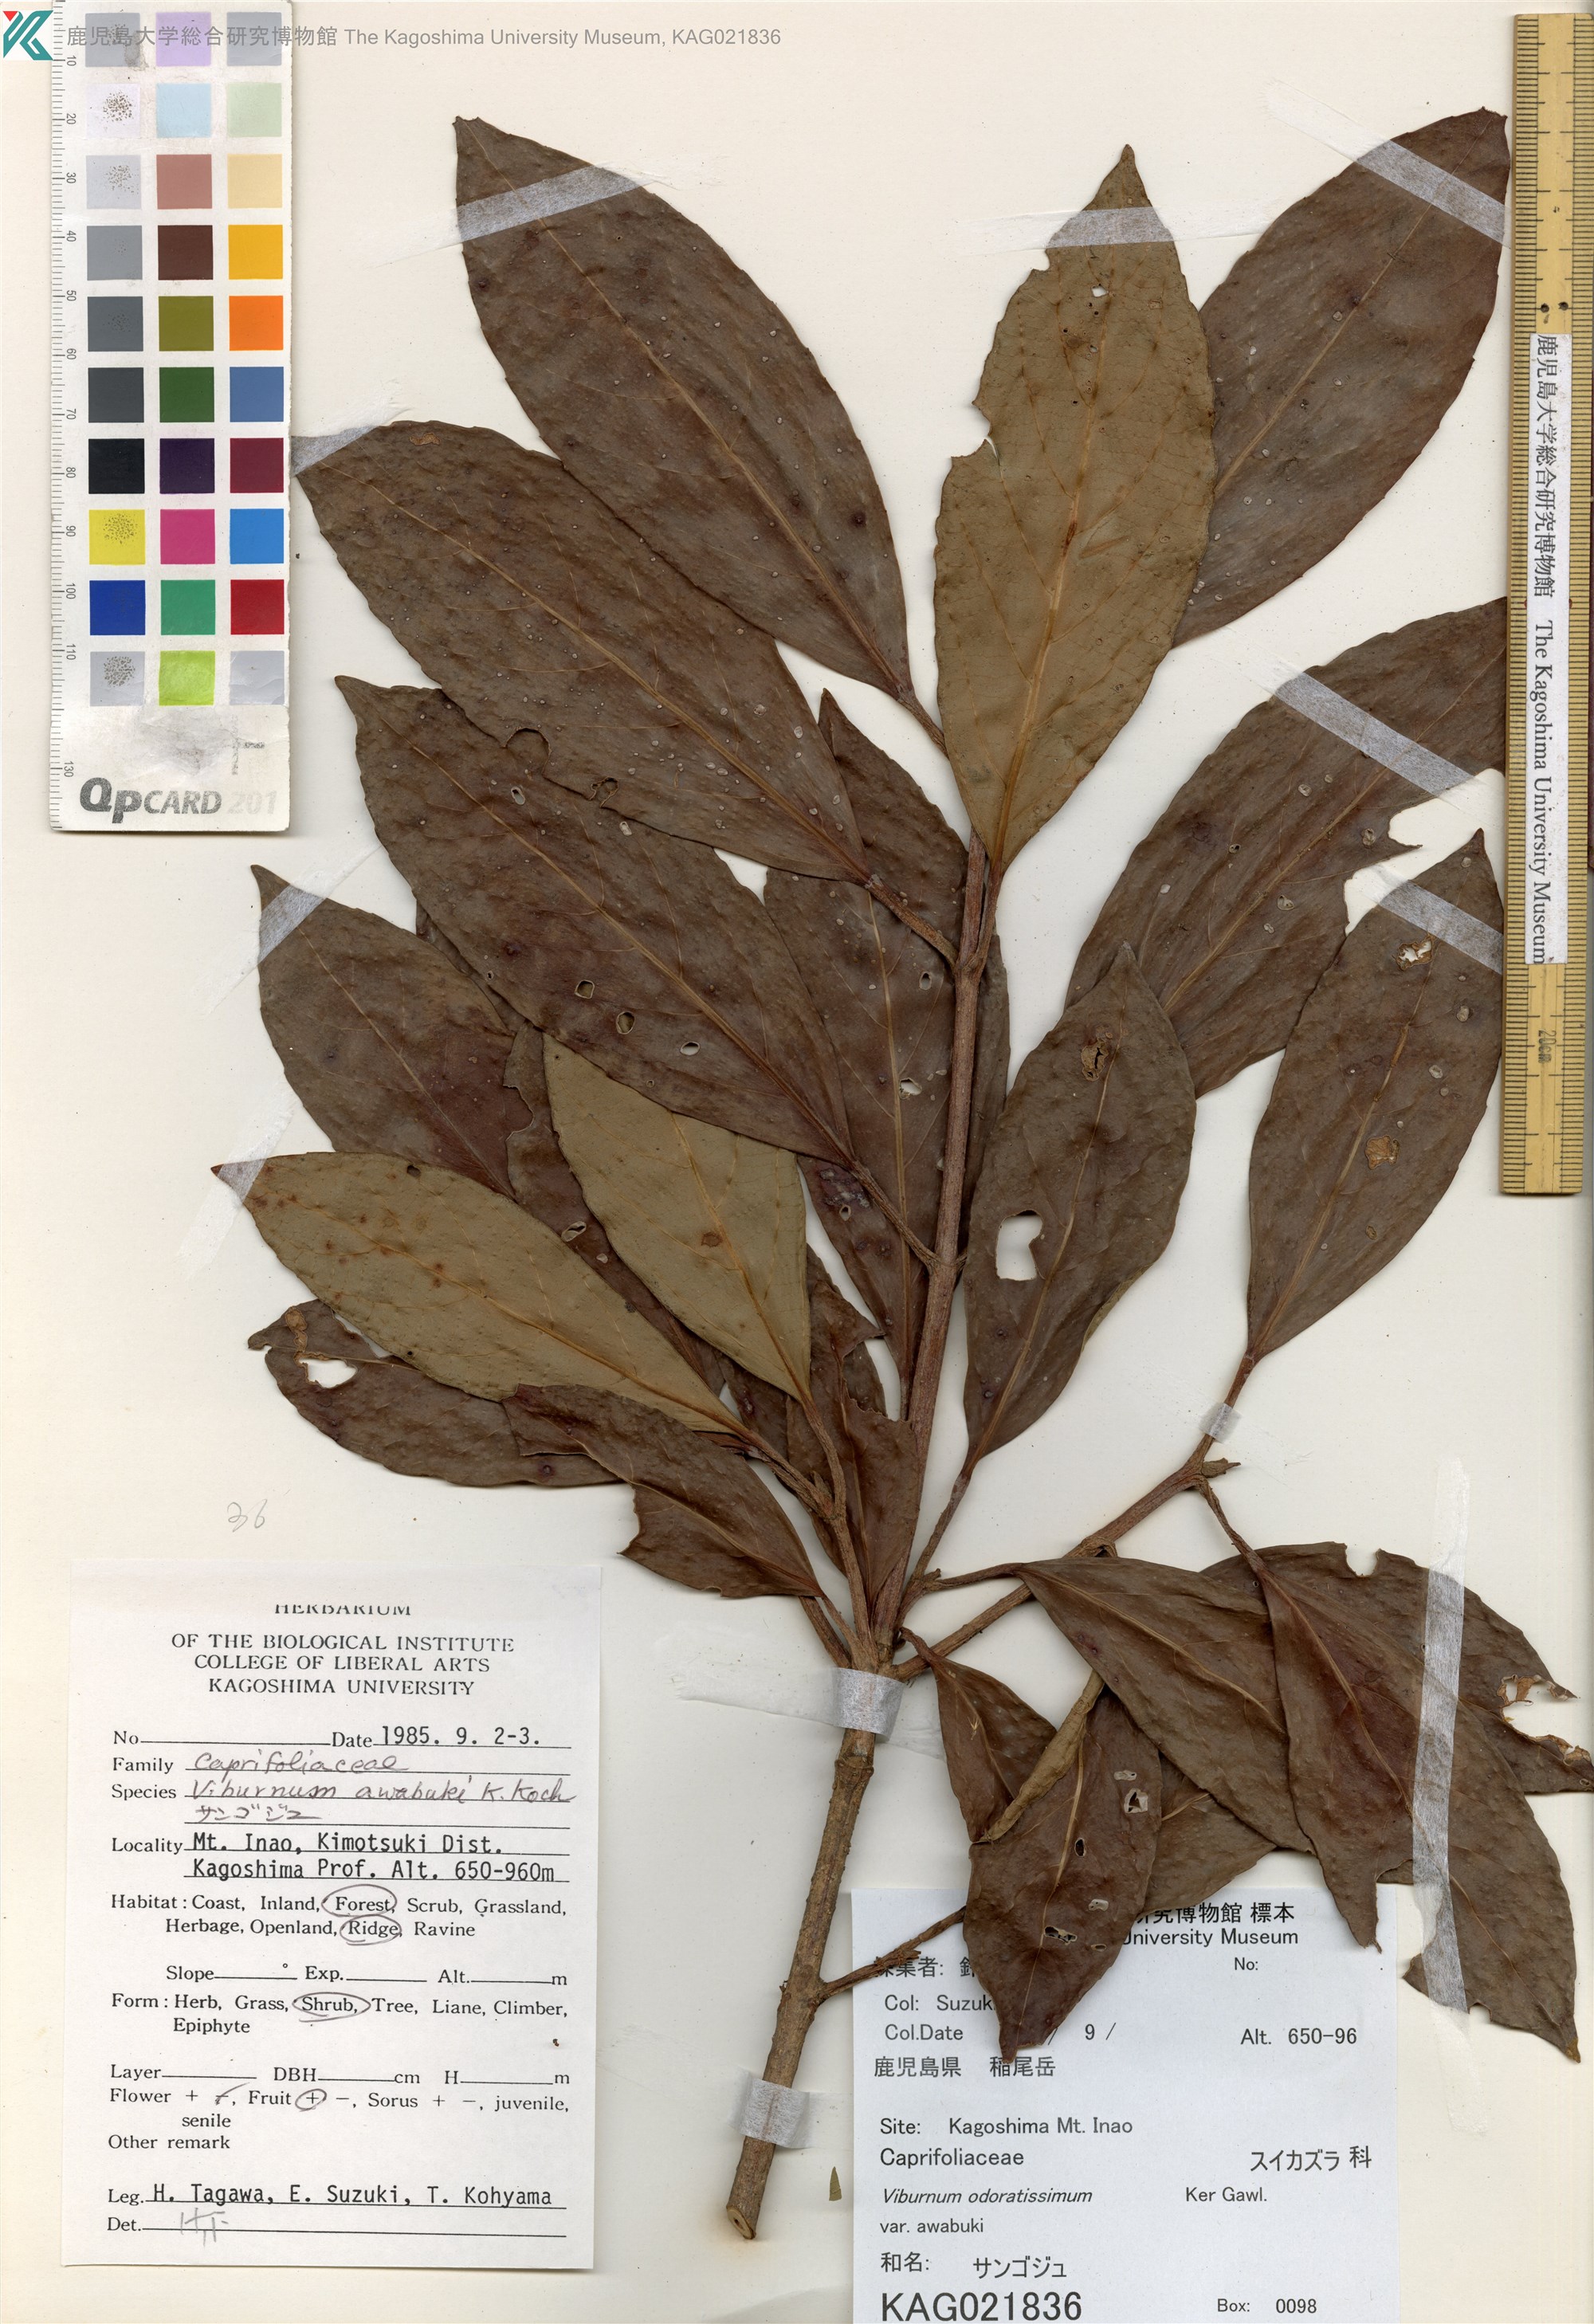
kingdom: Plantae
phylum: Tracheophyta
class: Magnoliopsida
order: Dipsacales
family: Viburnaceae
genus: Viburnum
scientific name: Viburnum odoratissimum
